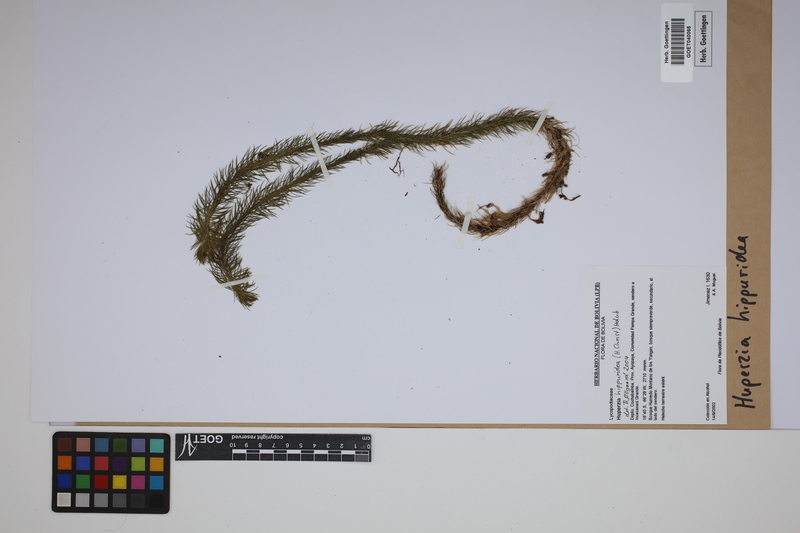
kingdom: Plantae
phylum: Tracheophyta
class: Lycopodiopsida
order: Lycopodiales
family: Lycopodiaceae
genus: Phlegmariurus
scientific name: Phlegmariurus hippurideus
